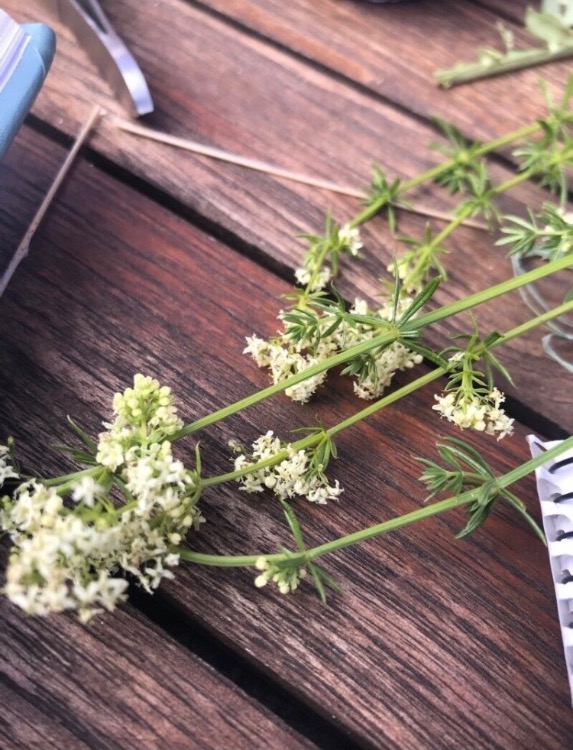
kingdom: Plantae
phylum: Tracheophyta
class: Magnoliopsida
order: Gentianales
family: Rubiaceae
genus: Galium
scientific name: Galium mollugo
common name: Hvid snerre
